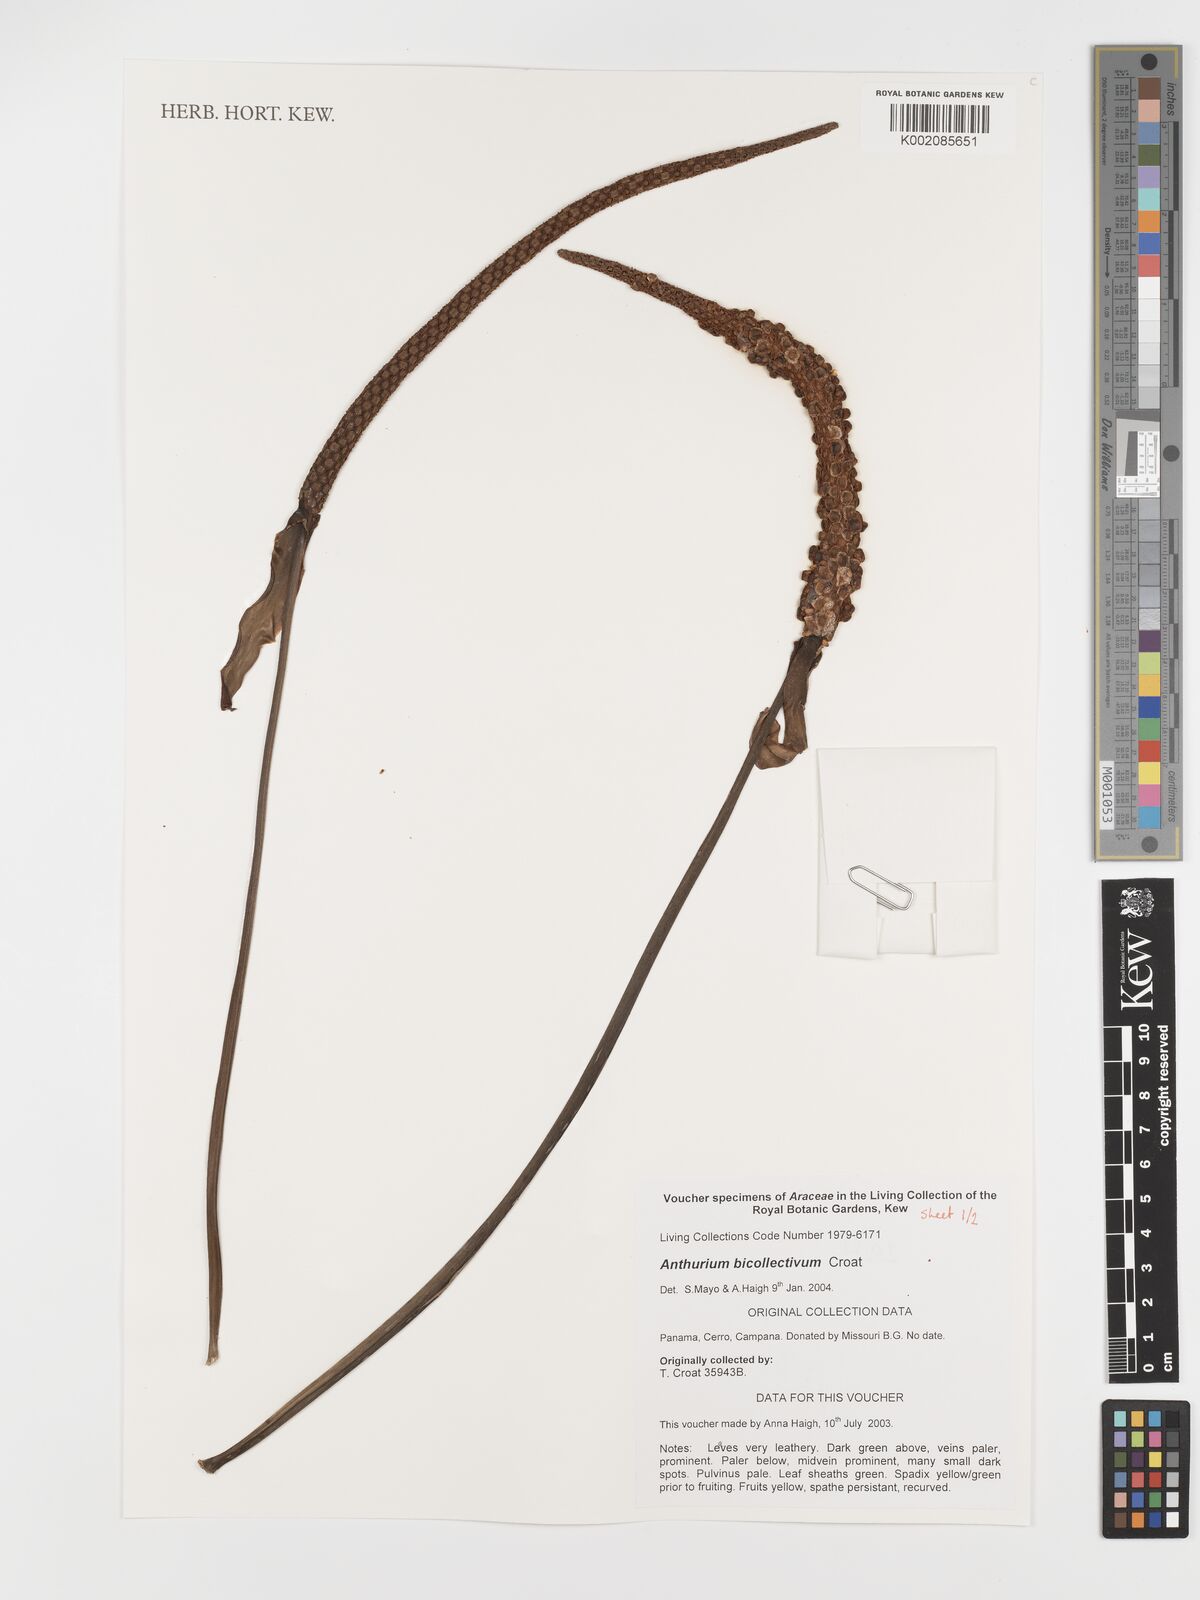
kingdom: Plantae
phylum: Tracheophyta
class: Liliopsida
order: Alismatales
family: Araceae
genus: Anthurium
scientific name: Anthurium durandii
